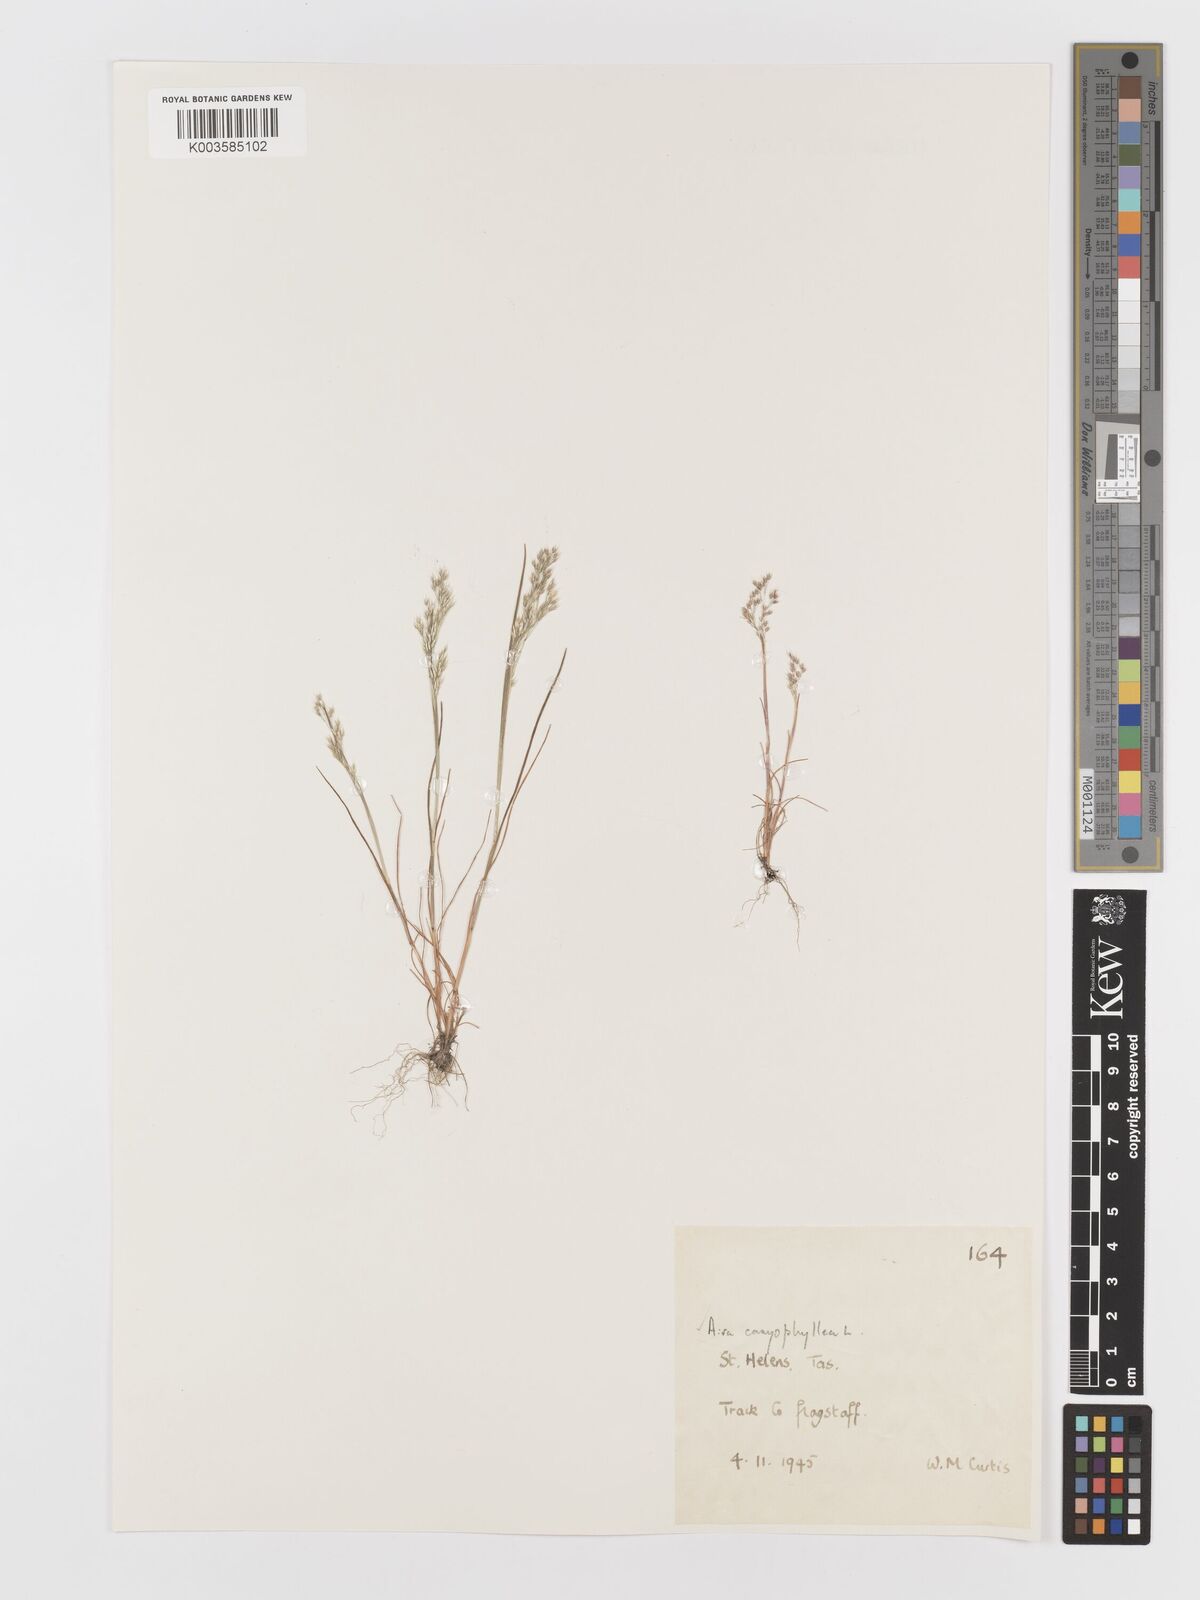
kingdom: Plantae
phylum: Tracheophyta
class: Liliopsida
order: Poales
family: Poaceae
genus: Aira
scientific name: Aira caryophyllea
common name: Silver hairgrass
